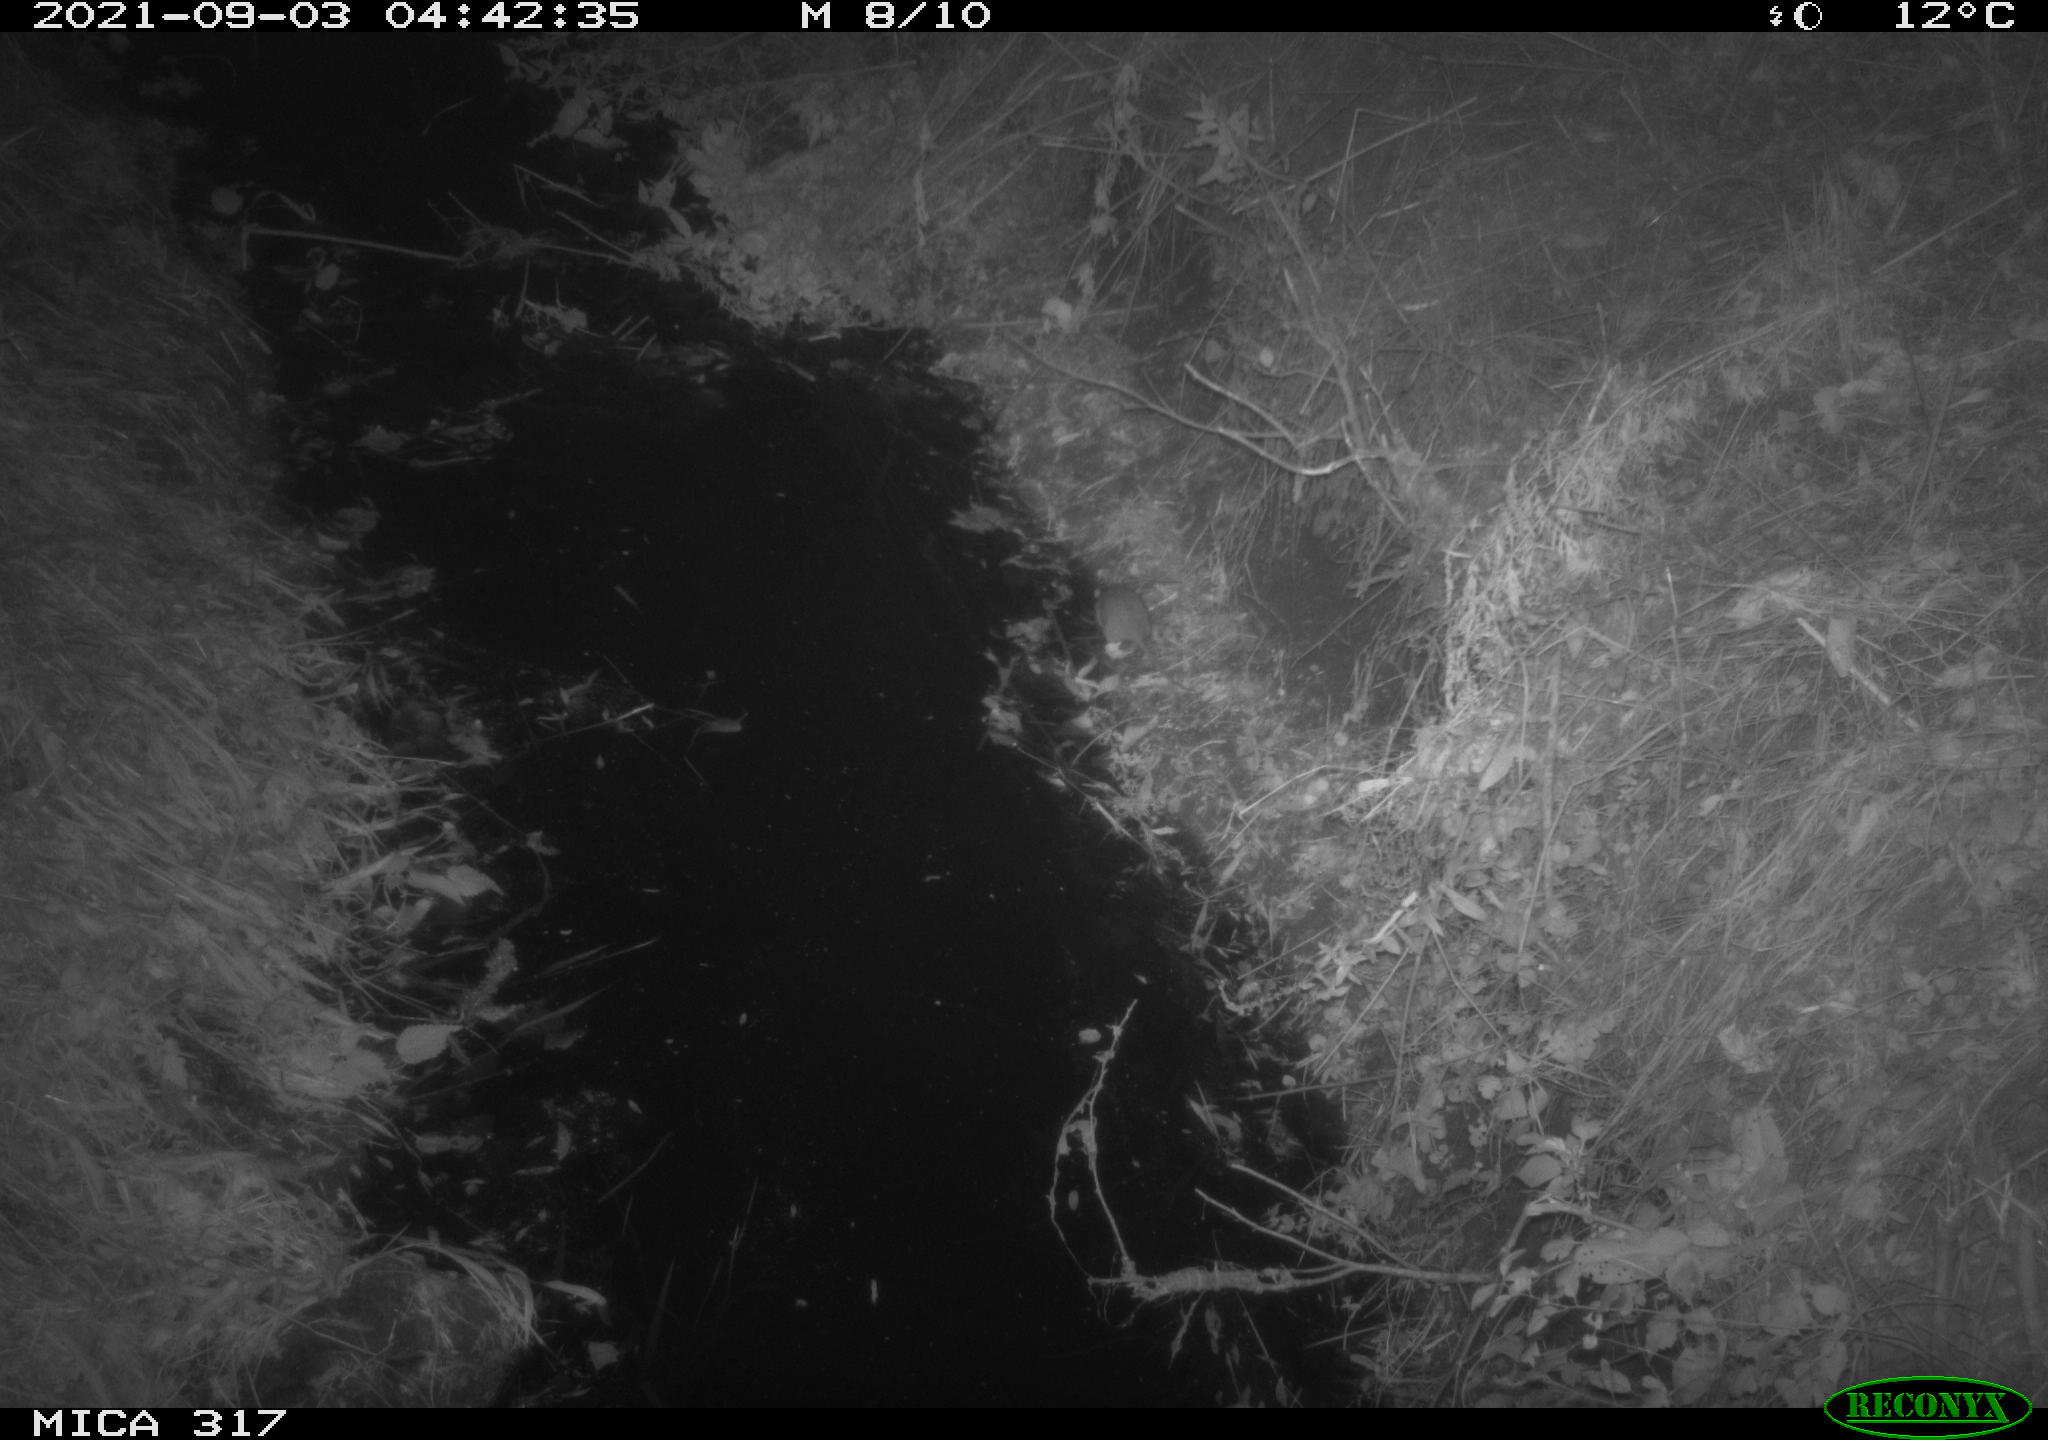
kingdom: Animalia
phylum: Chordata
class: Mammalia
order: Rodentia
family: Muridae
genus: Rattus
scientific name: Rattus norvegicus
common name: Brown rat
